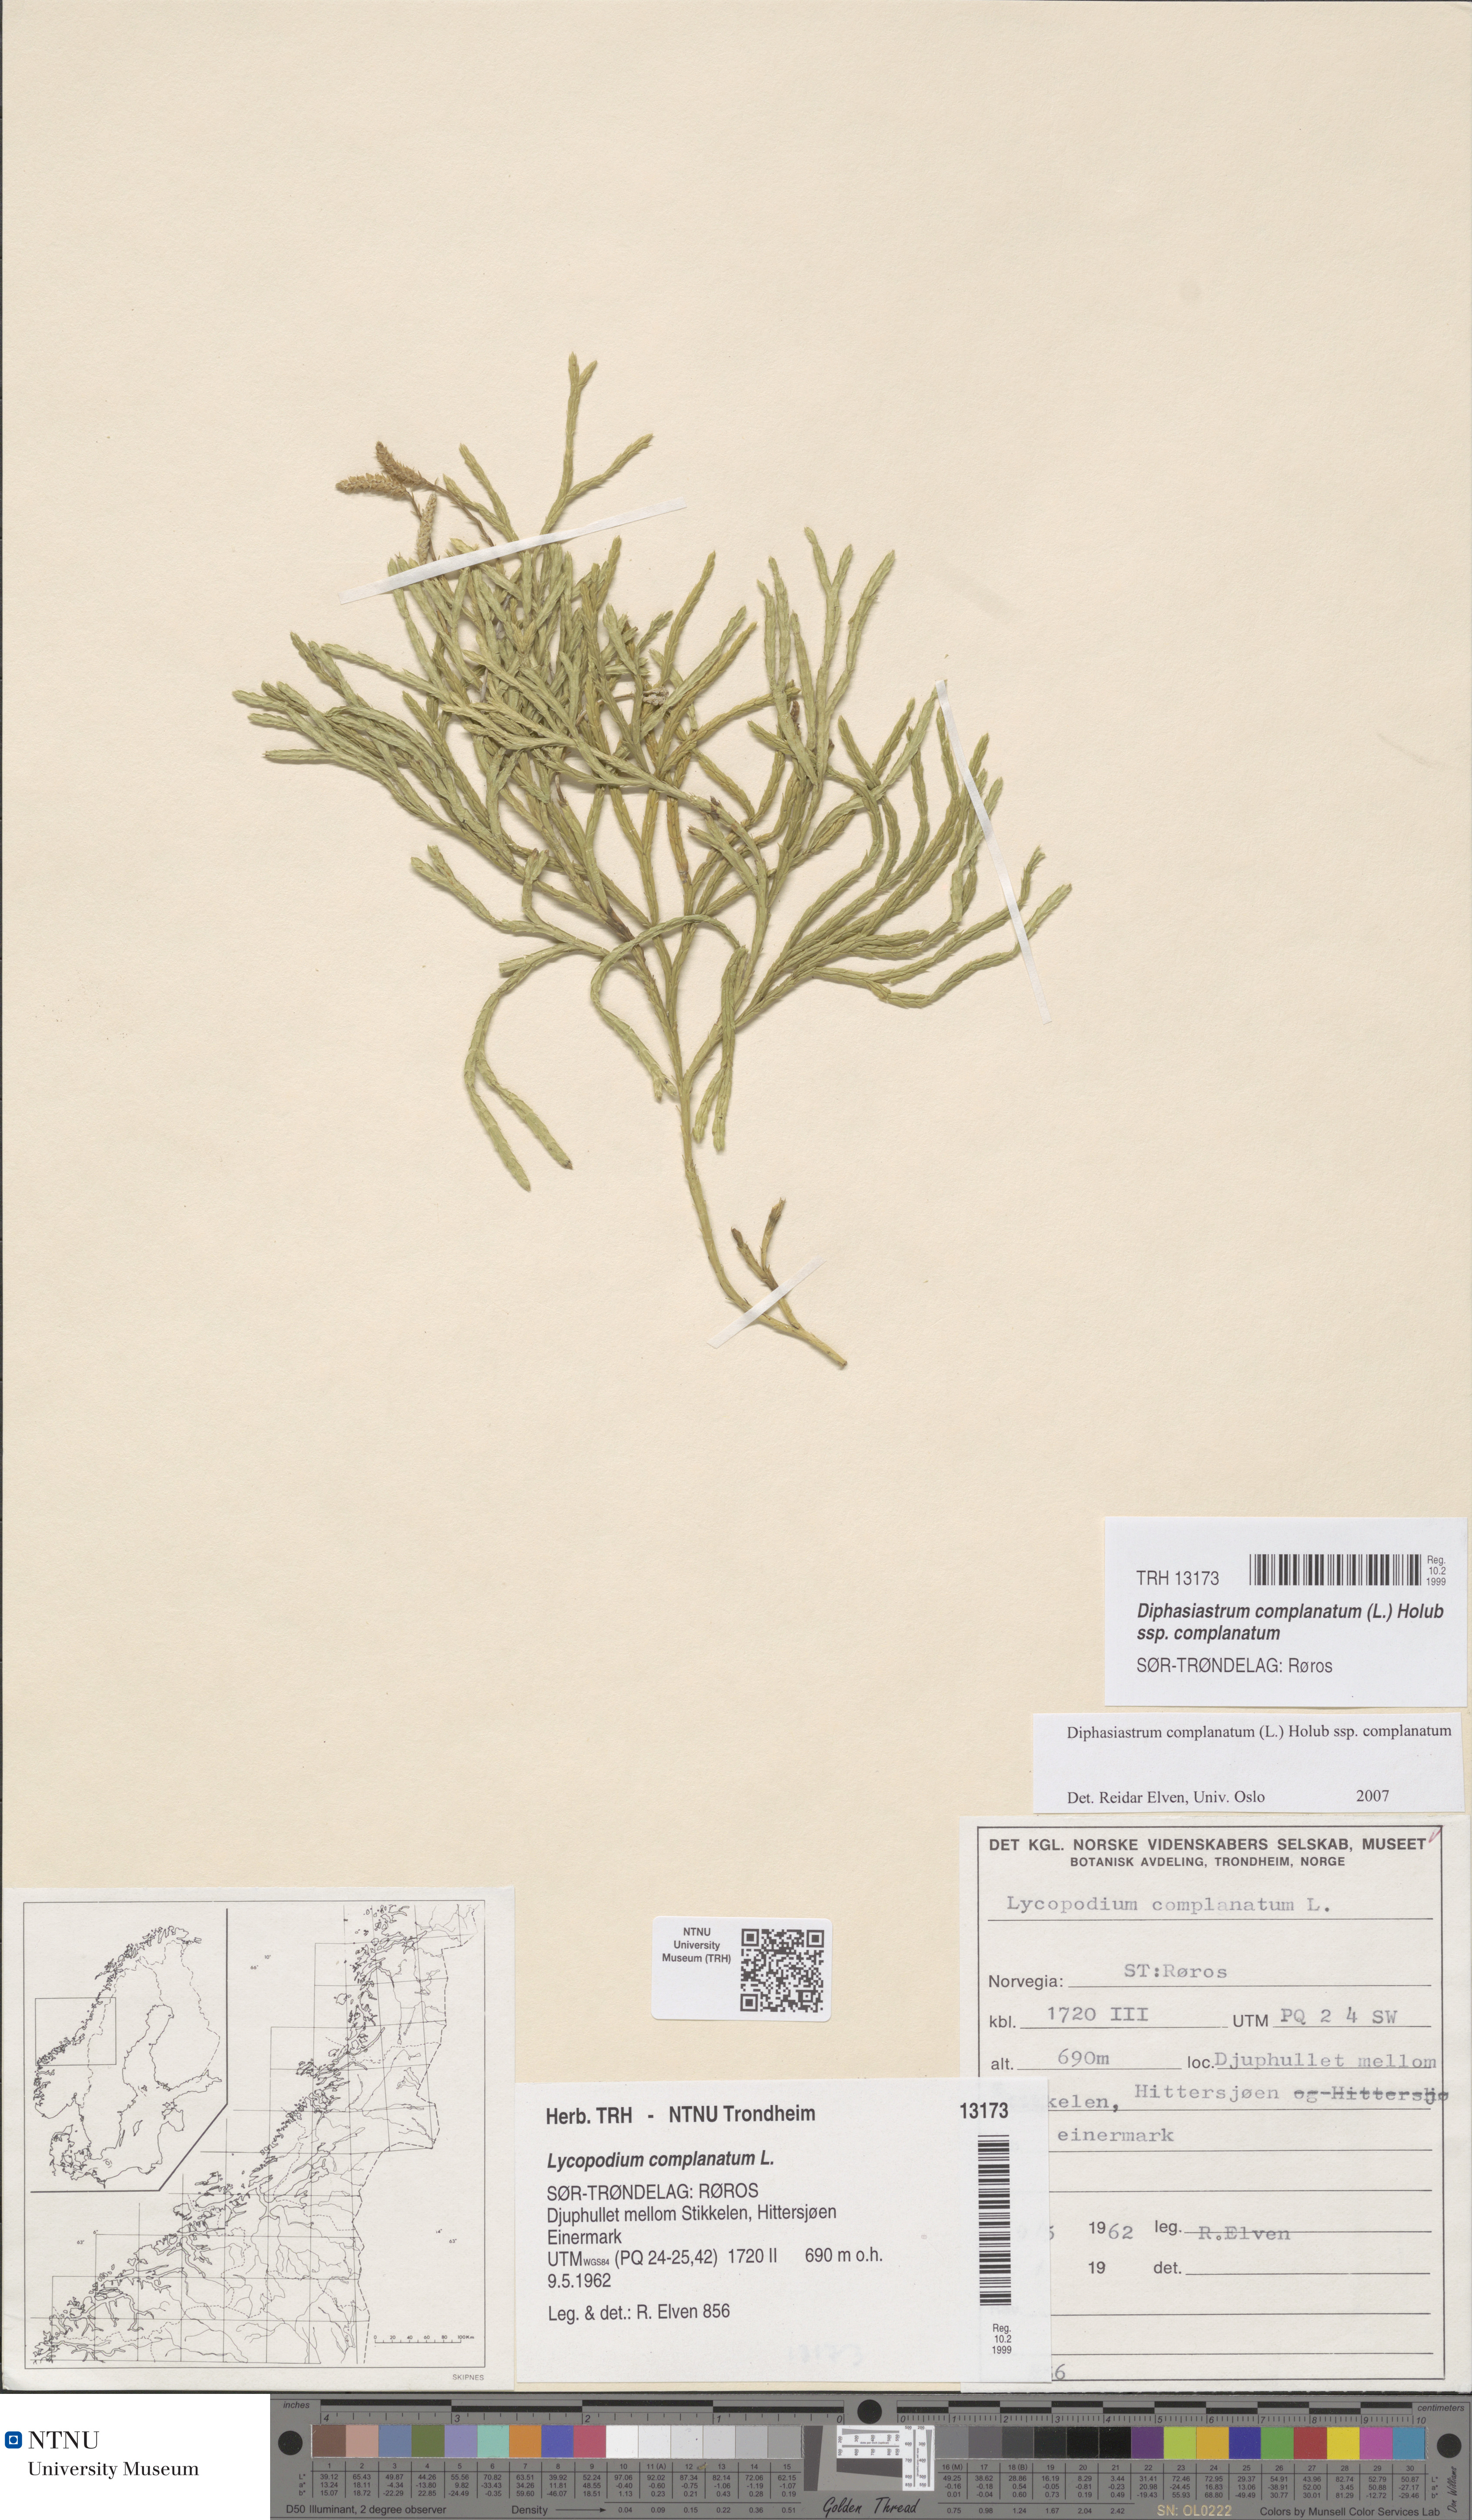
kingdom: Plantae
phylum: Tracheophyta
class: Lycopodiopsida
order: Lycopodiales
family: Lycopodiaceae
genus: Diphasiastrum
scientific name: Diphasiastrum complanatum
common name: Northern running-pine
